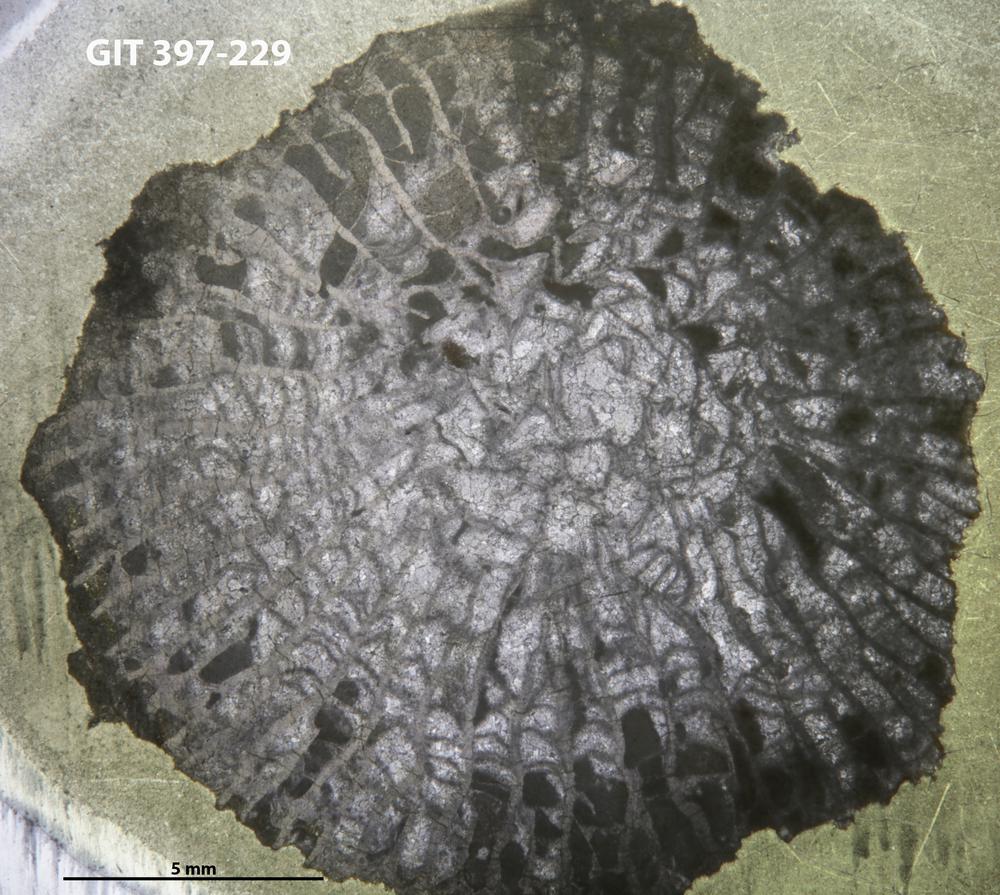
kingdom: Animalia
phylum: Cnidaria
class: Anthozoa
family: Paliphyllidae
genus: Paliphyllum
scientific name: Paliphyllum
